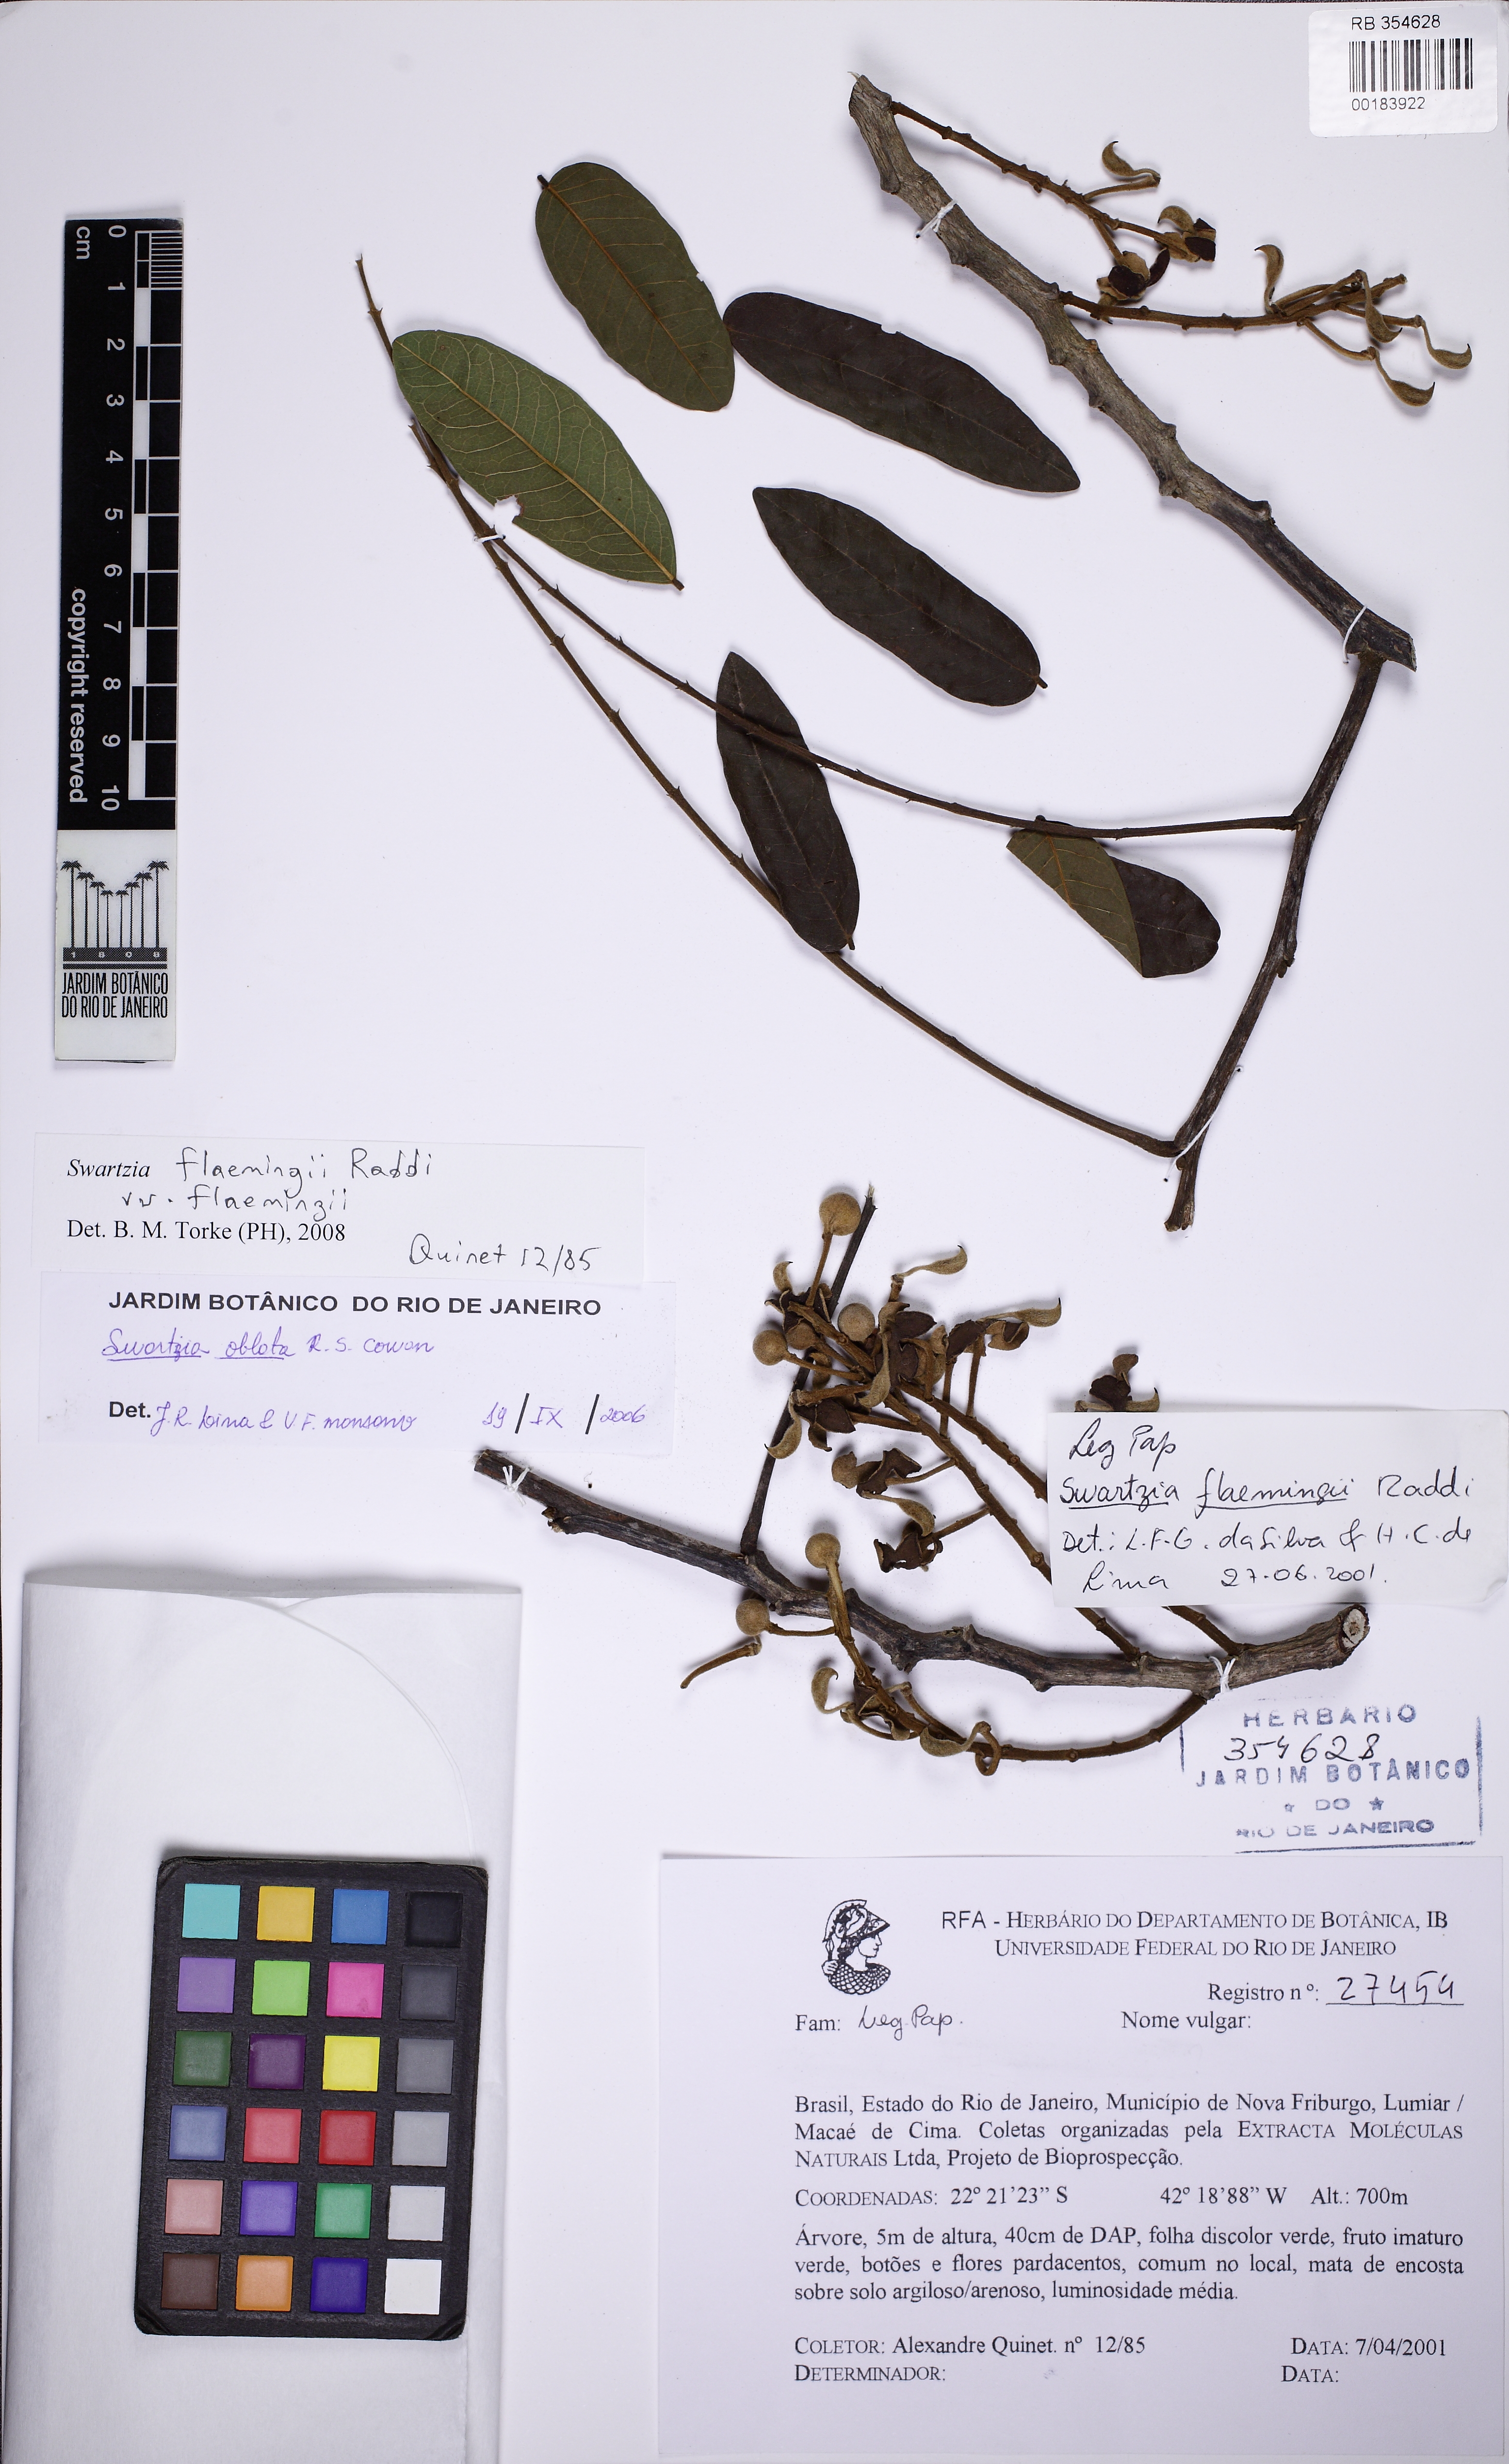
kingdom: Plantae
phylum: Tracheophyta
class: Magnoliopsida
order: Fabales
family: Fabaceae
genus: Swartzia
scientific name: Swartzia flaemingii
